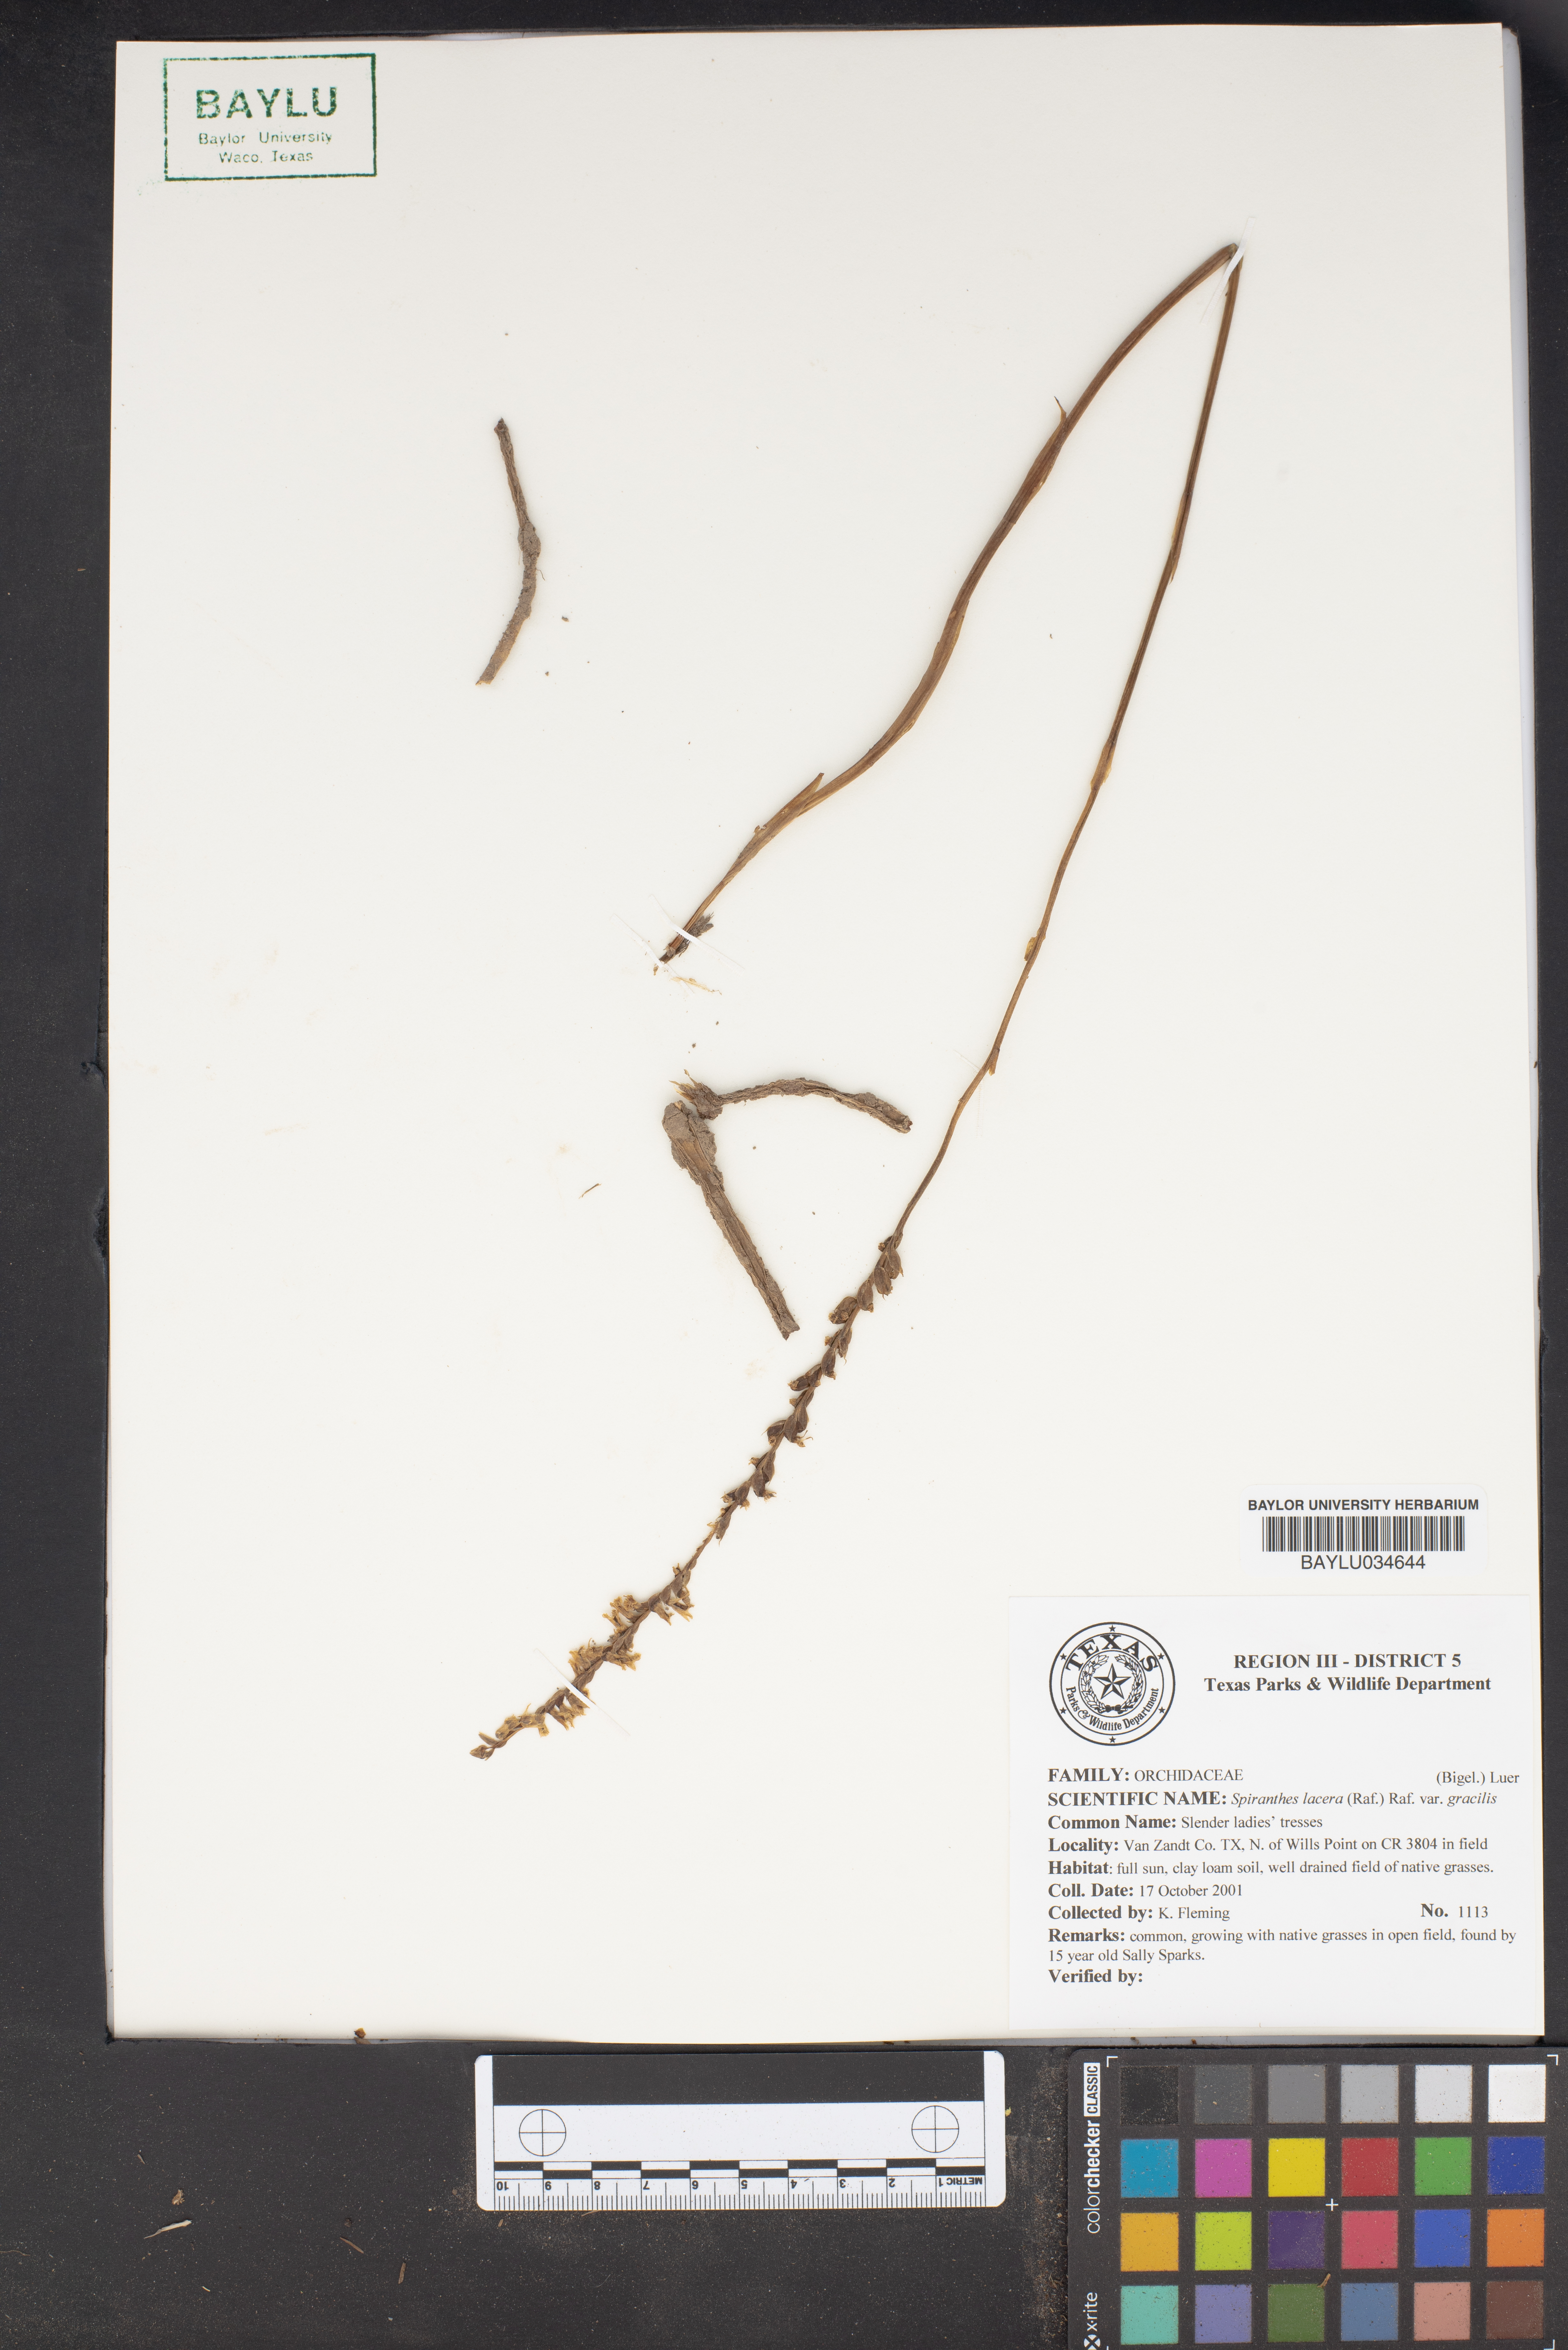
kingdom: Plantae
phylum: Tracheophyta
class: Liliopsida
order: Asparagales
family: Orchidaceae
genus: Spiranthes
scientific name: Spiranthes lacera
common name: Northern slender ladies'-tresses
